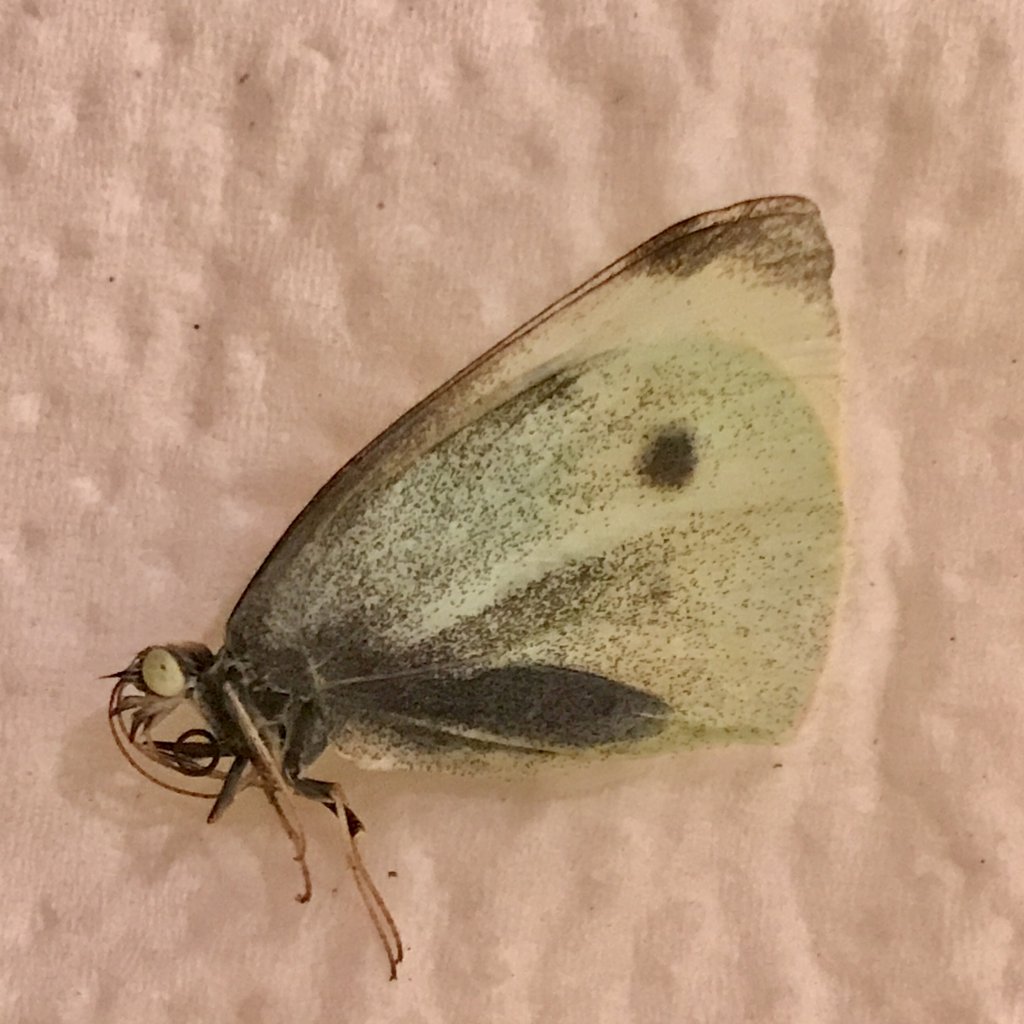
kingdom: Animalia
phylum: Arthropoda
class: Insecta
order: Lepidoptera
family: Pieridae
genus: Pieris
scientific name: Pieris rapae
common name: Cabbage White
